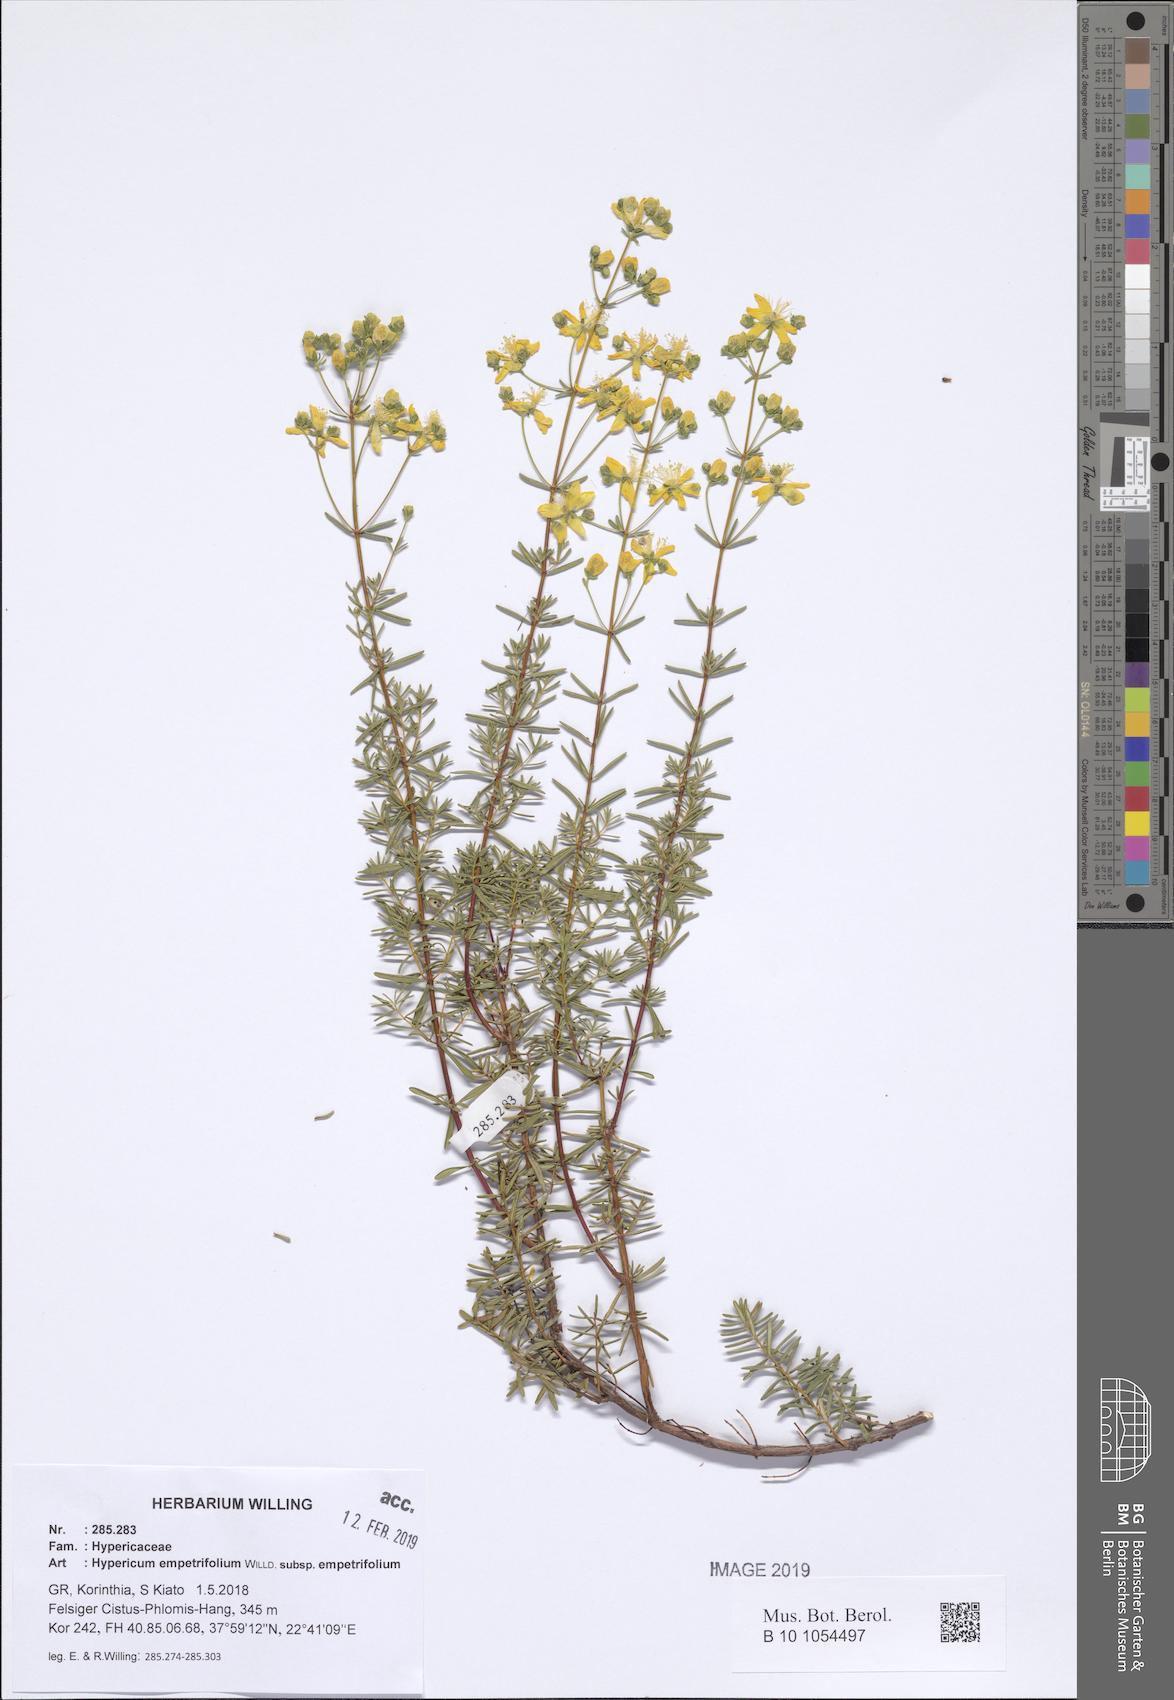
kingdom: Plantae
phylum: Tracheophyta
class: Magnoliopsida
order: Malpighiales
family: Hypericaceae
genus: Hypericum
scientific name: Hypericum empetrifolium
